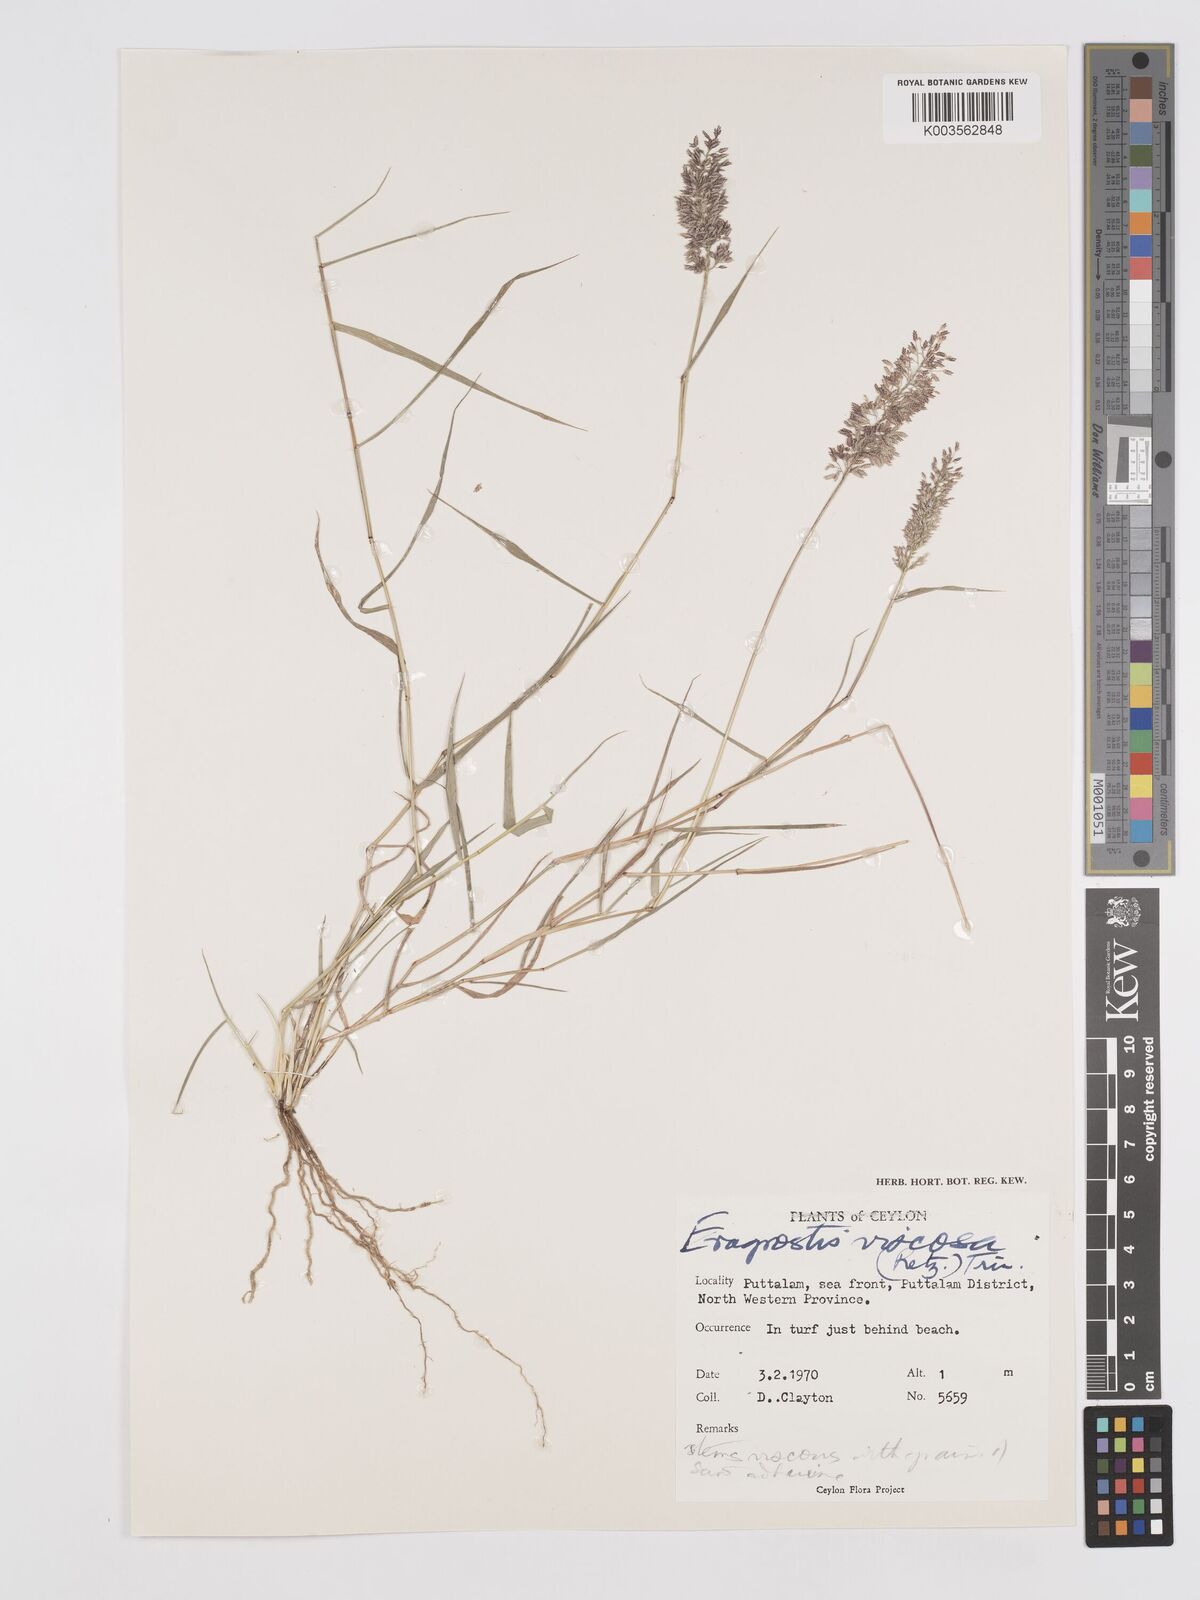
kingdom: Plantae
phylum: Tracheophyta
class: Liliopsida
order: Poales
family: Poaceae
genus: Eragrostis
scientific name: Eragrostis viscosa
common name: Sticky love grass
